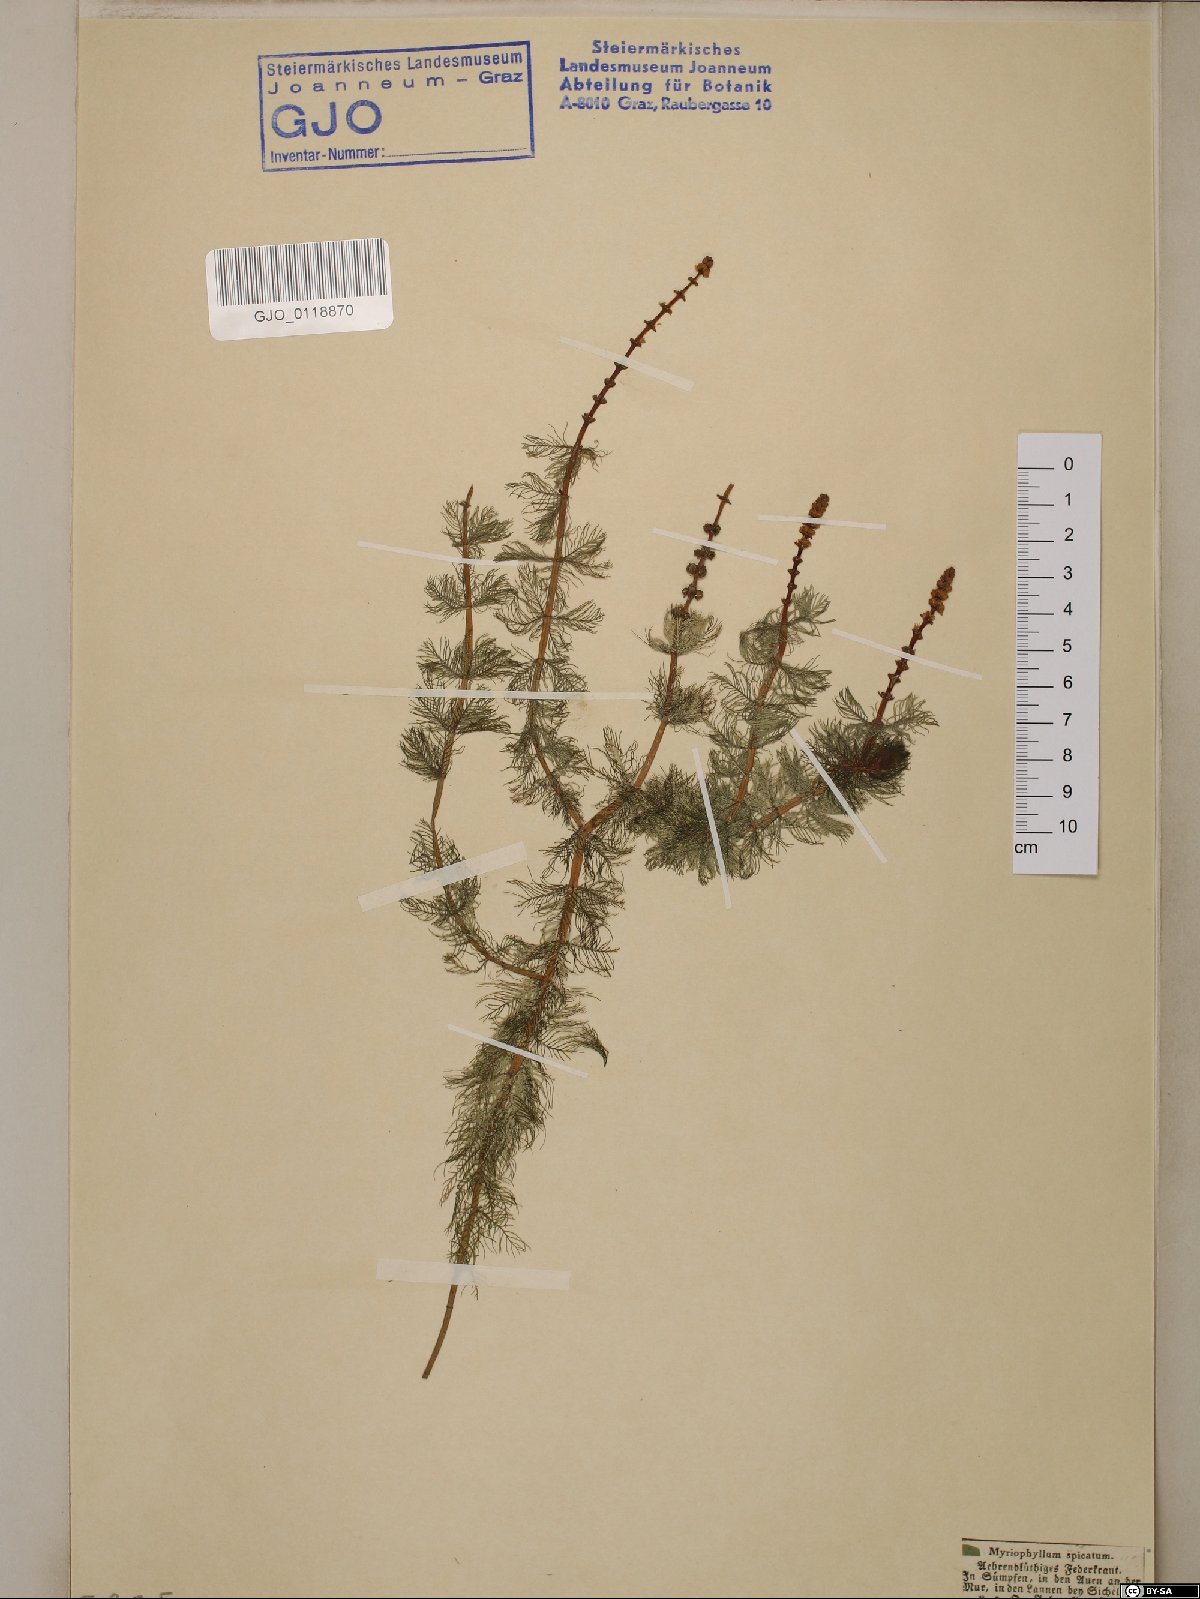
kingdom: Plantae
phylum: Tracheophyta
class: Magnoliopsida
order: Saxifragales
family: Haloragaceae
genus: Myriophyllum
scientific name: Myriophyllum spicatum
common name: Spiked water-milfoil
